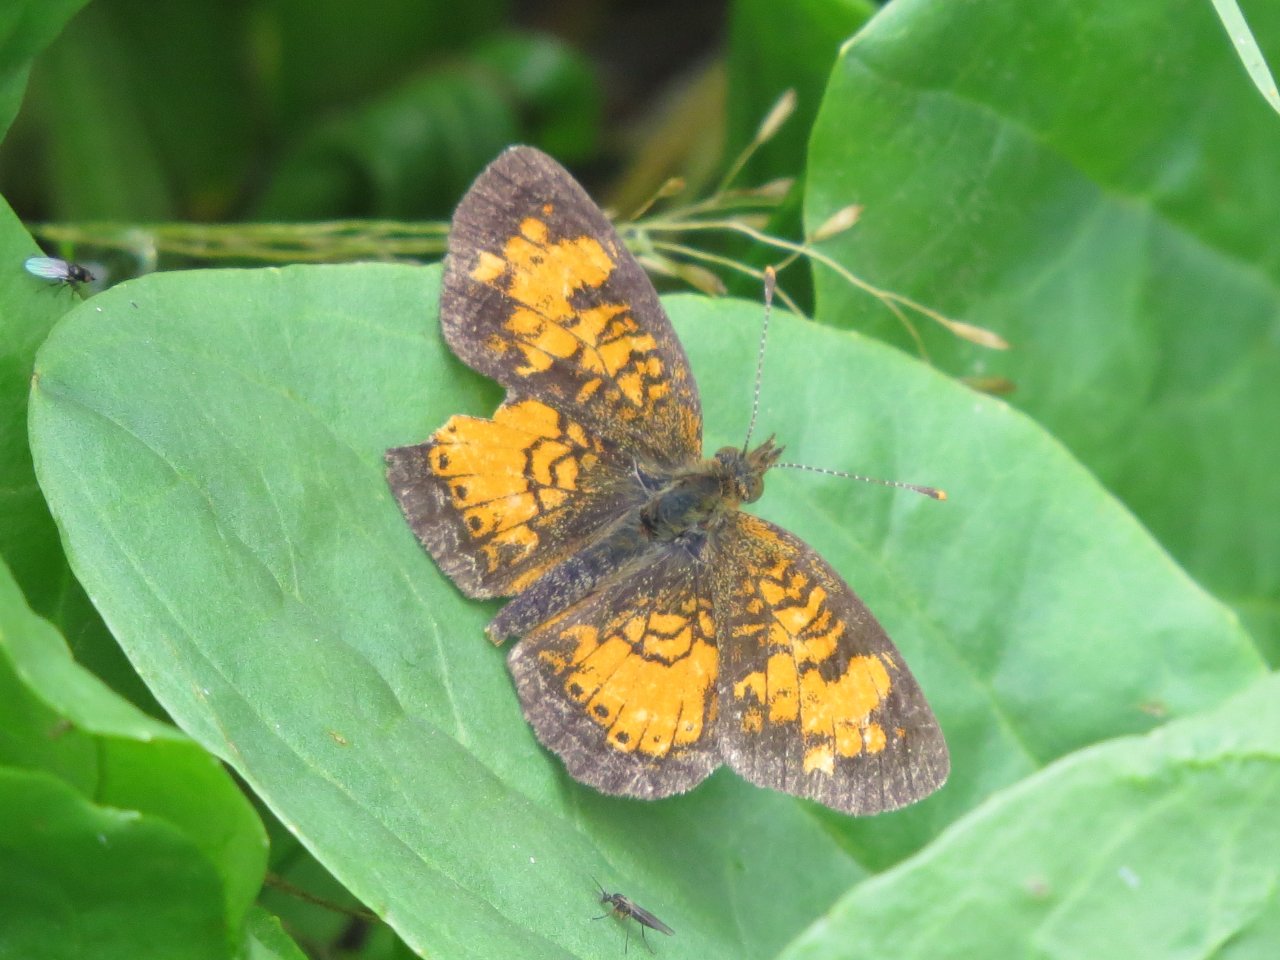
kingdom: Animalia
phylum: Arthropoda
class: Insecta
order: Lepidoptera
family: Nymphalidae
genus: Phyciodes
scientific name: Phyciodes tharos
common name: Northern Crescent
